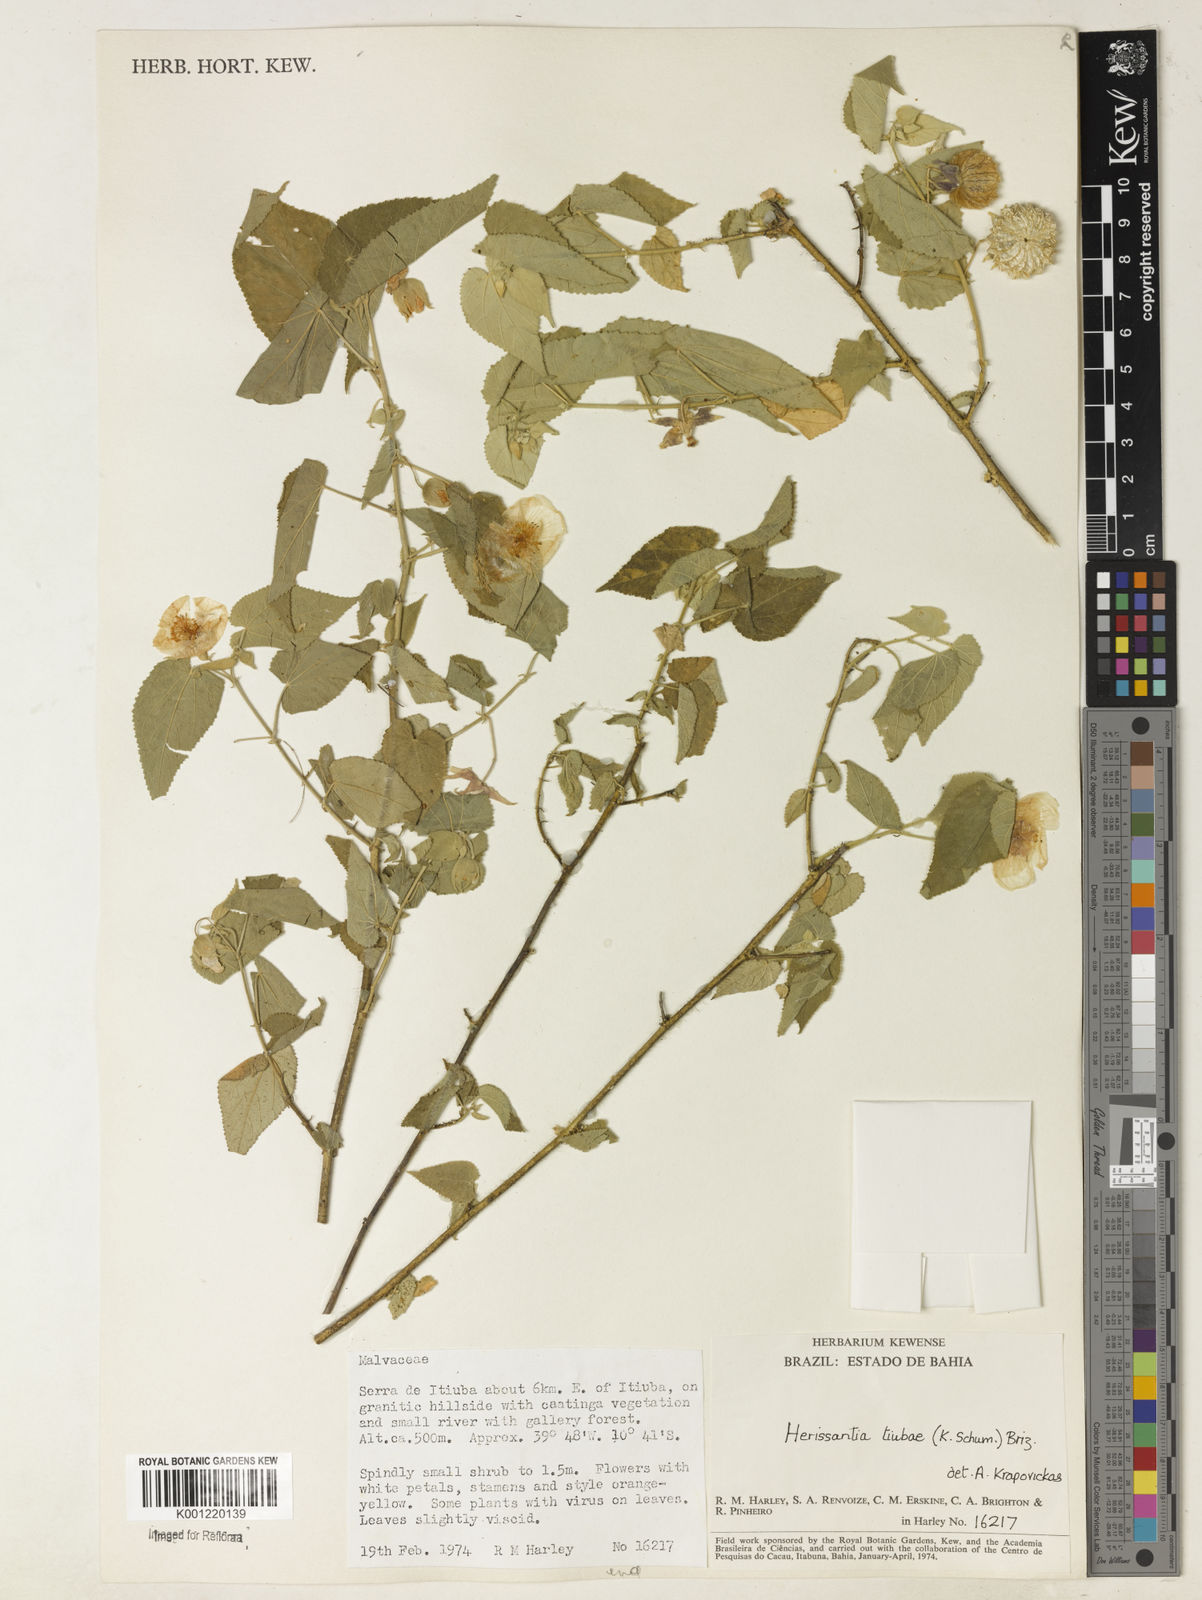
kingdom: Plantae
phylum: Tracheophyta
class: Magnoliopsida
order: Malvales
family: Malvaceae
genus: Herissantia
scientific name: Herissantia tiubae
